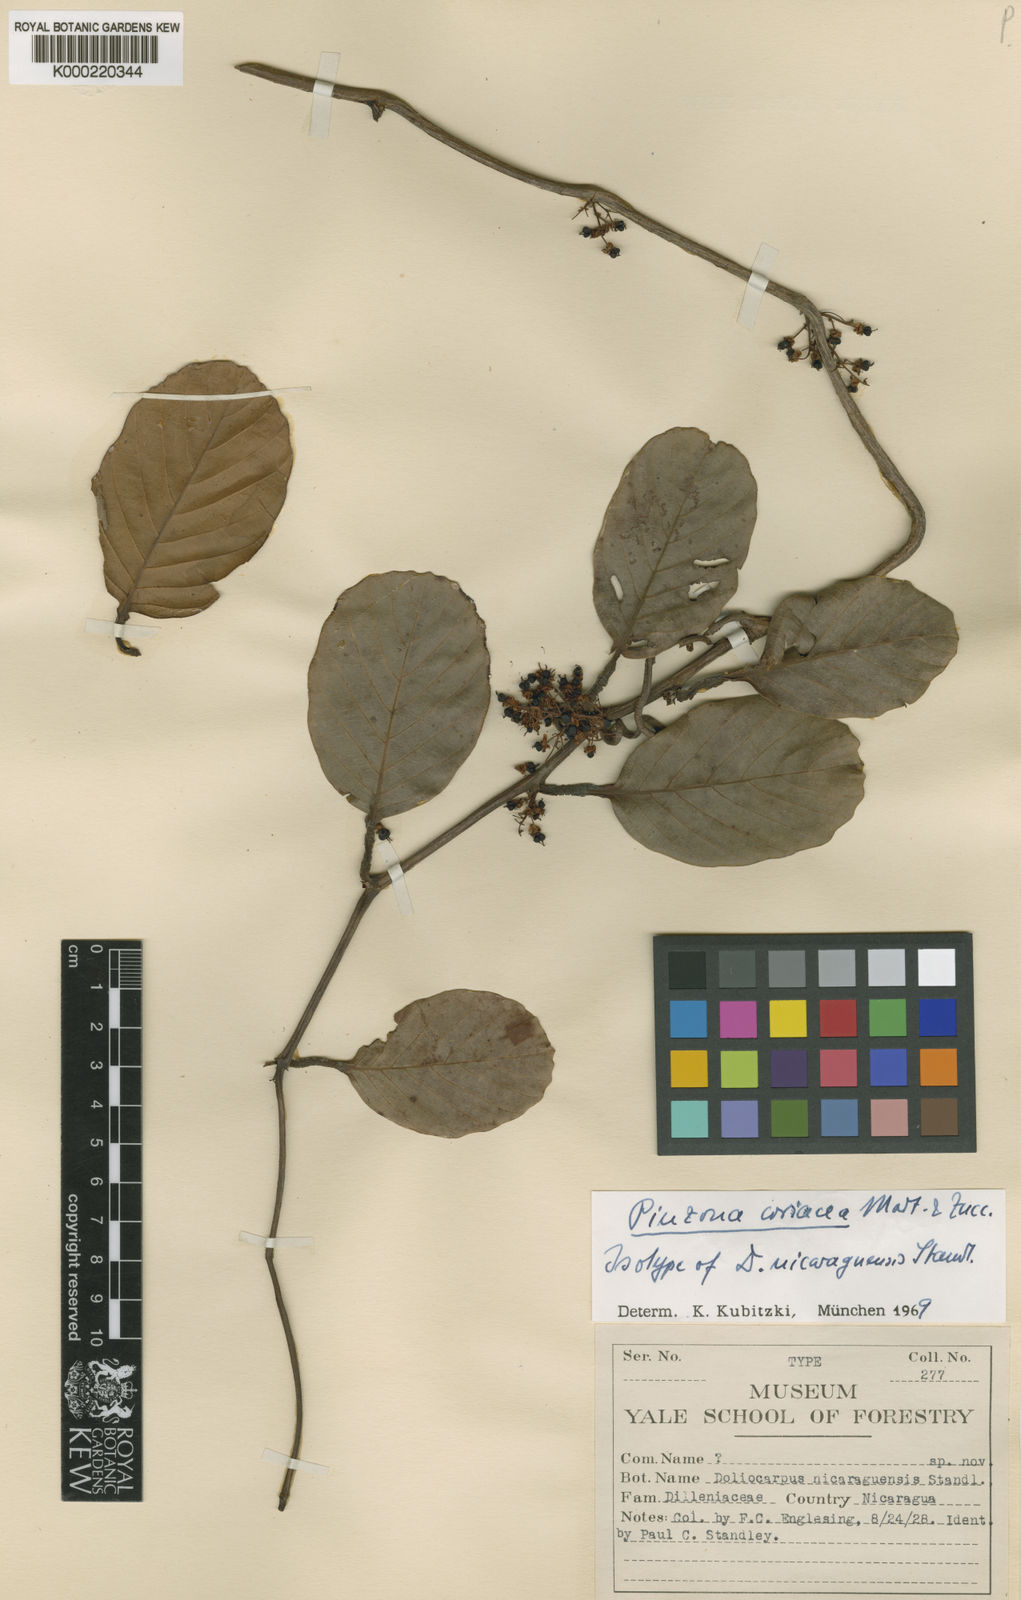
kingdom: Plantae
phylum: Tracheophyta
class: Magnoliopsida
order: Dilleniales
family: Dilleniaceae
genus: Pinzona
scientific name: Pinzona coriacea
